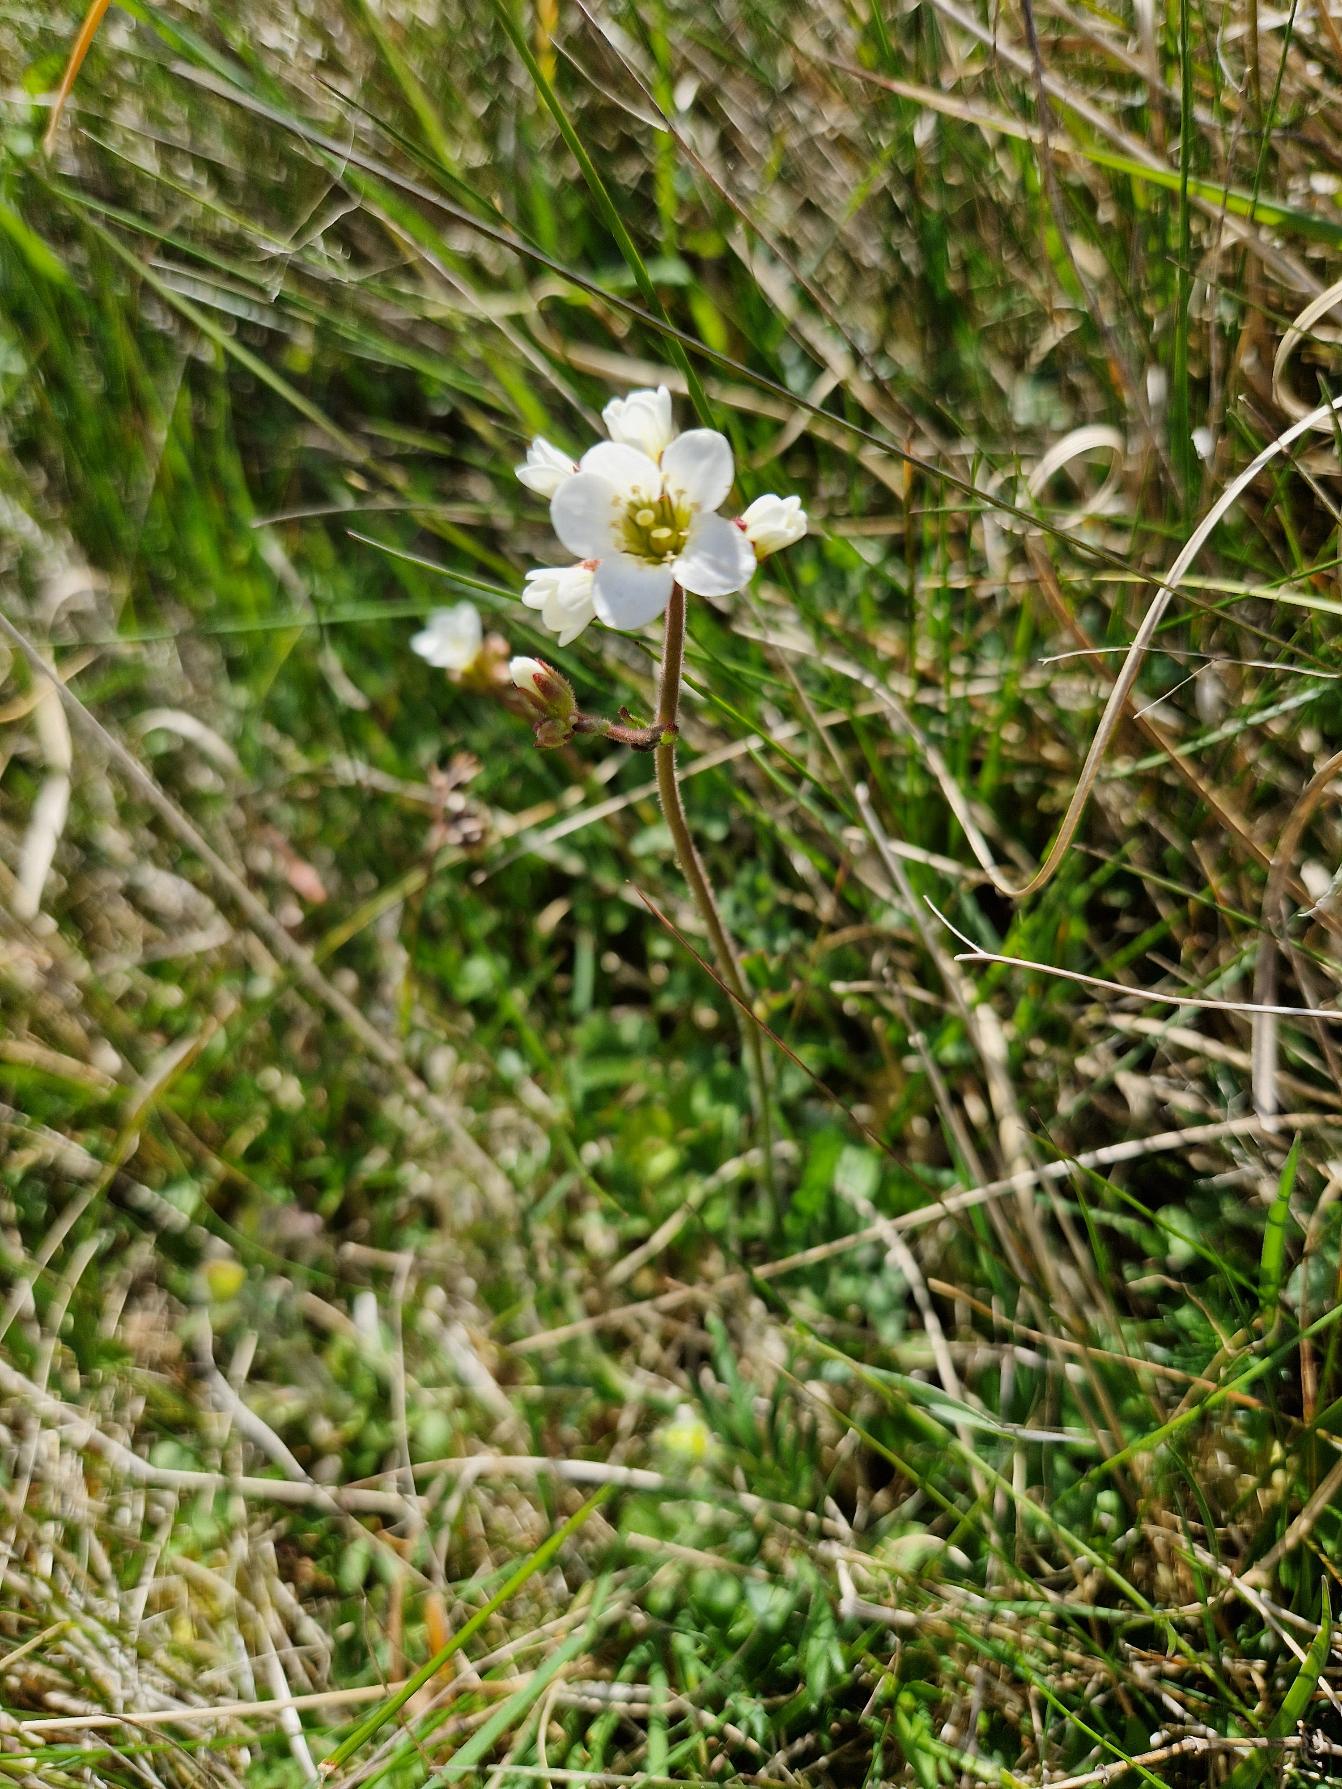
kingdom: Plantae
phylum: Tracheophyta
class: Magnoliopsida
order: Saxifragales
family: Saxifragaceae
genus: Saxifraga
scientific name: Saxifraga granulata
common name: Kornet stenbræk
